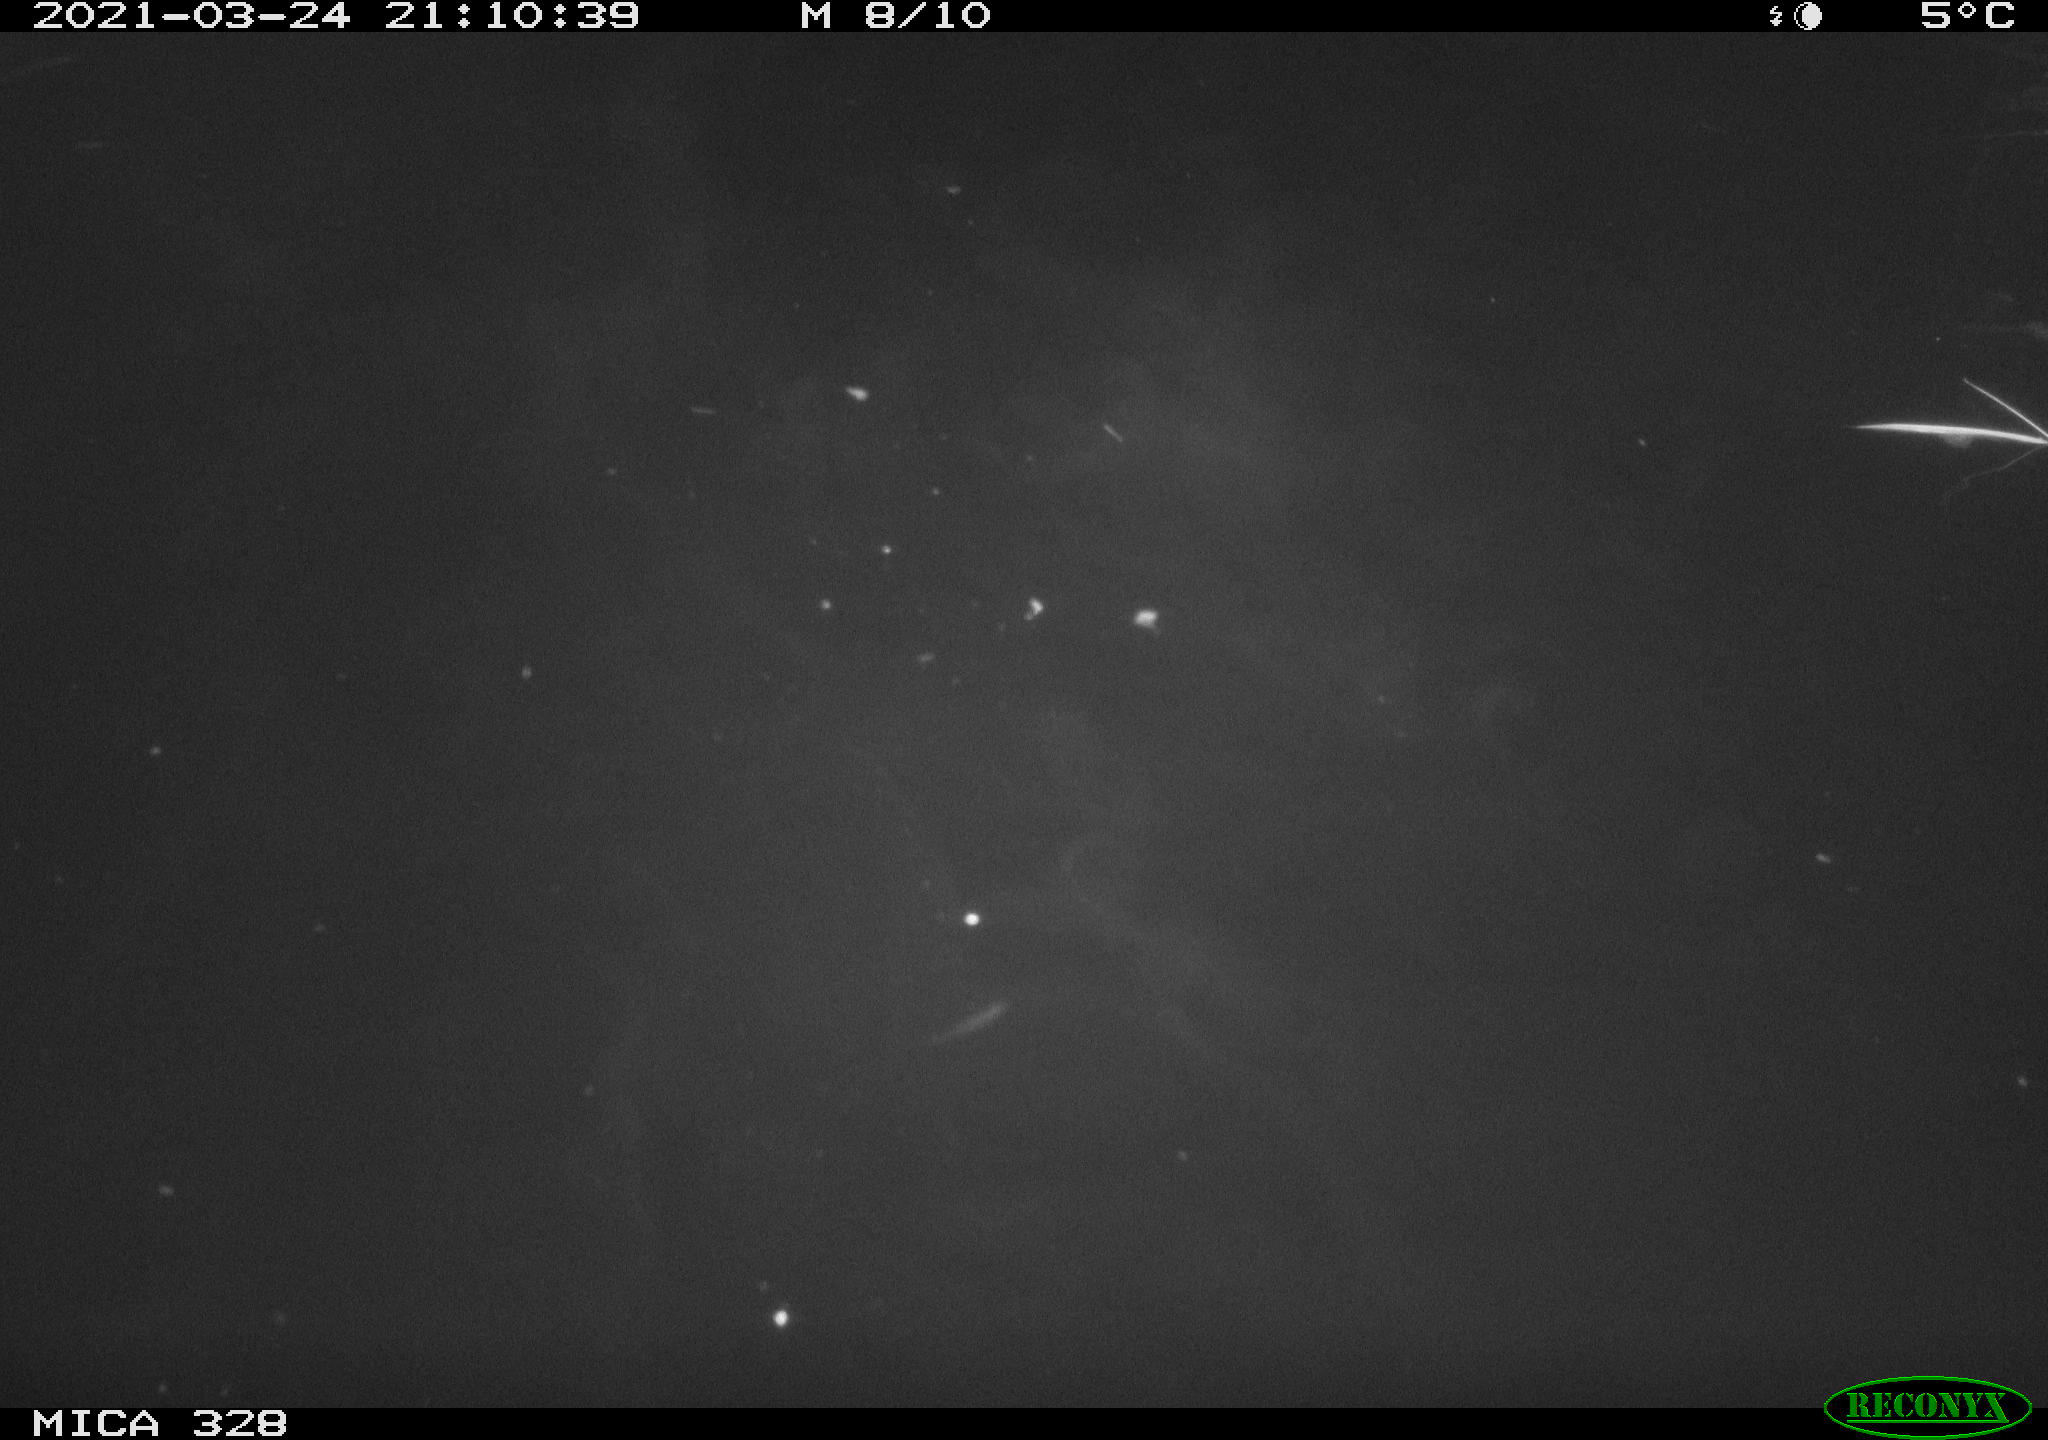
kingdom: Animalia
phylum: Chordata
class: Mammalia
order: Rodentia
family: Cricetidae
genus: Ondatra
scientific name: Ondatra zibethicus
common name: Muskrat
